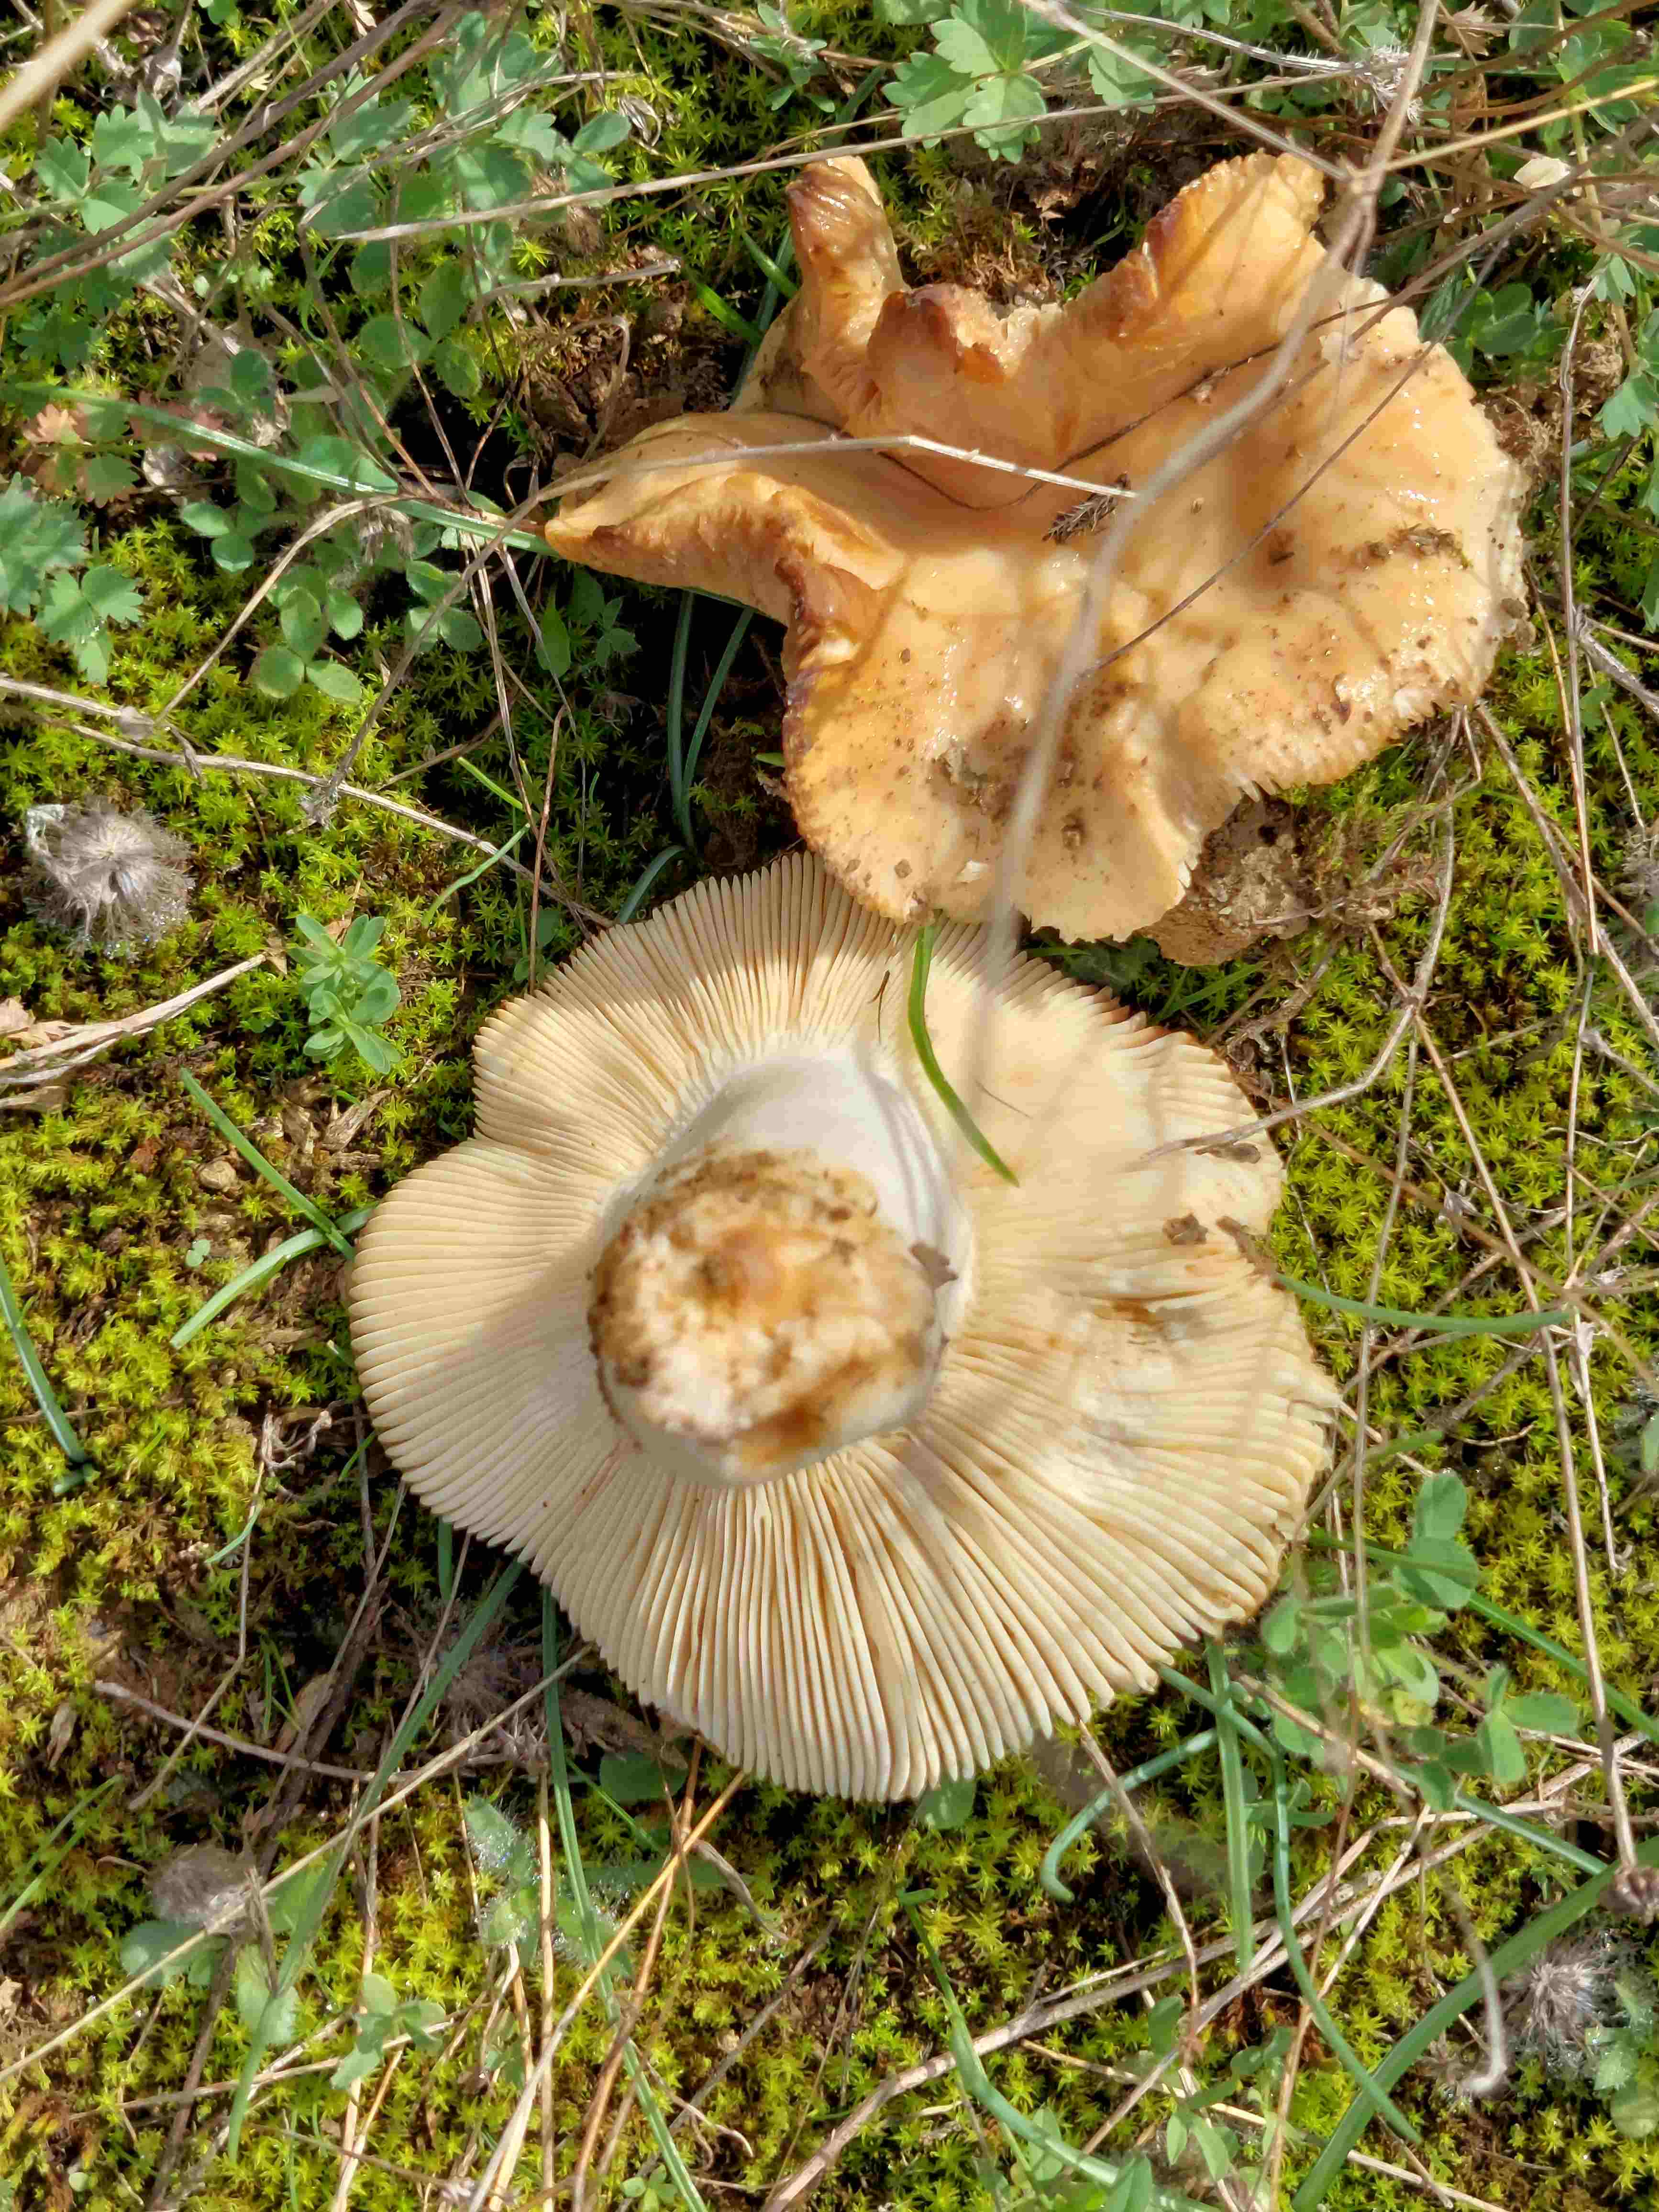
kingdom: Fungi
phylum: Basidiomycota
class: Agaricomycetes
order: Russulales
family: Russulaceae
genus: Russula
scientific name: Russula
